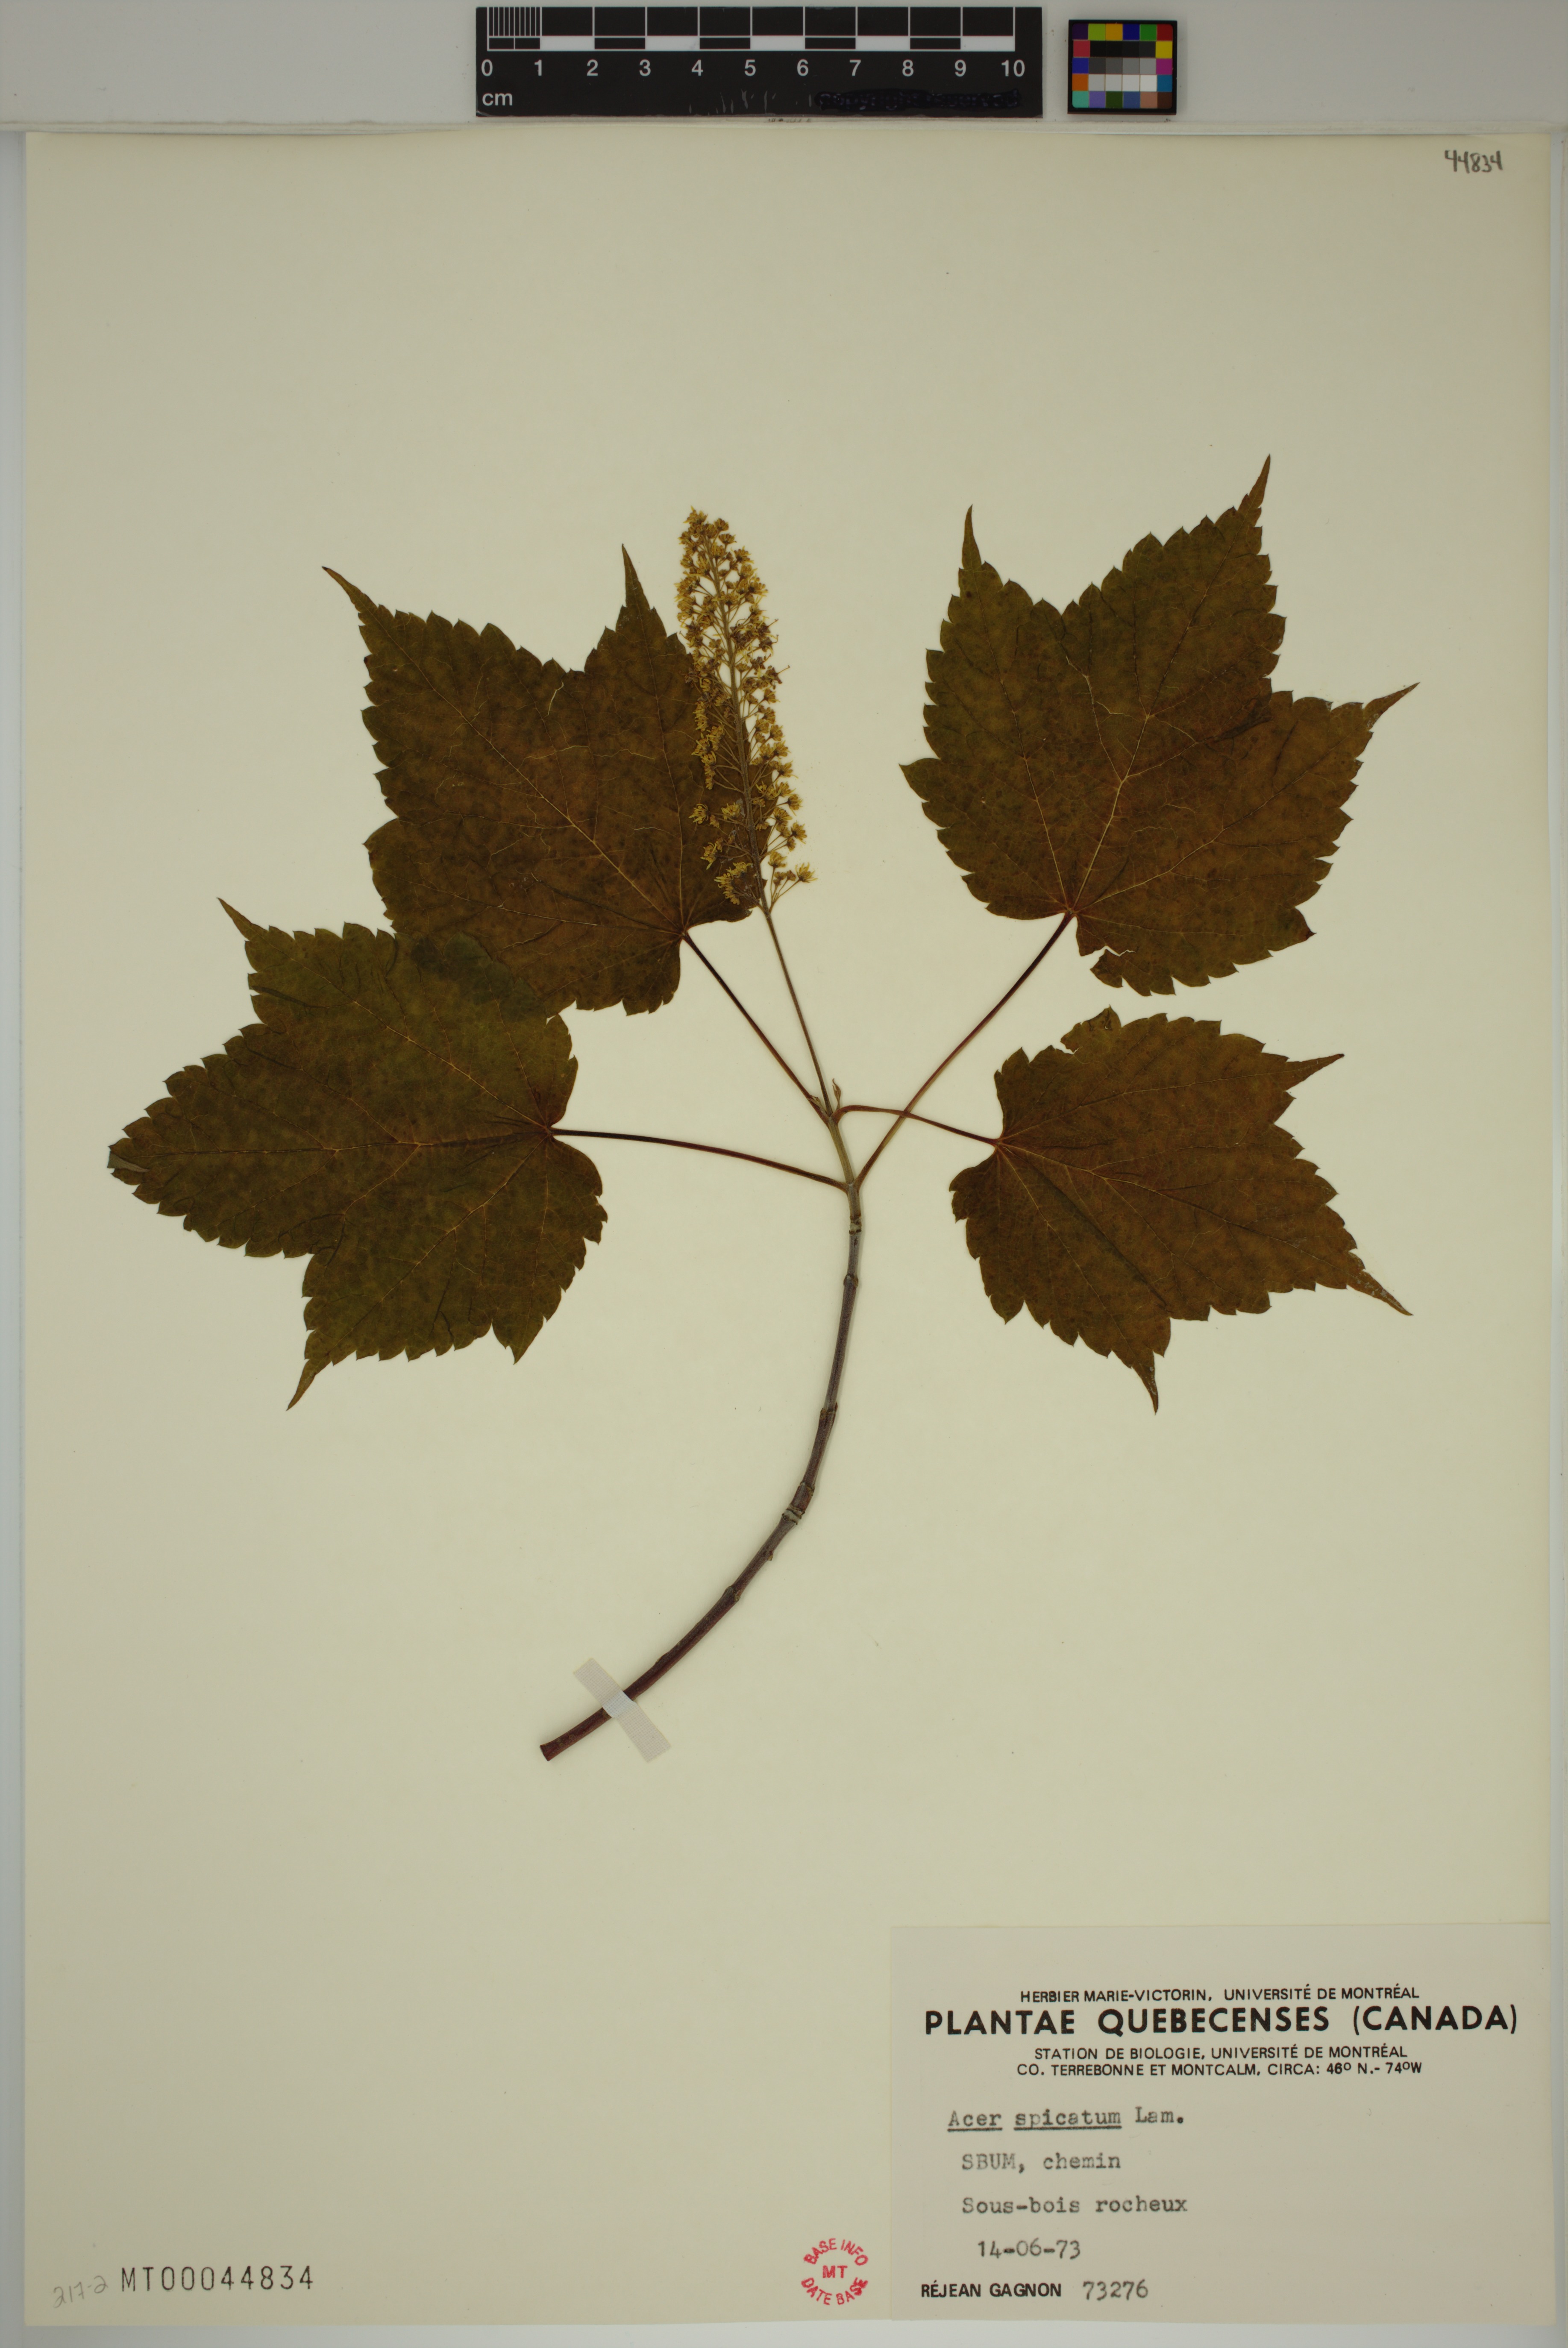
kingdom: Plantae
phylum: Tracheophyta
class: Magnoliopsida
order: Sapindales
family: Sapindaceae
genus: Acer
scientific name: Acer spicatum
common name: Mountain maple
